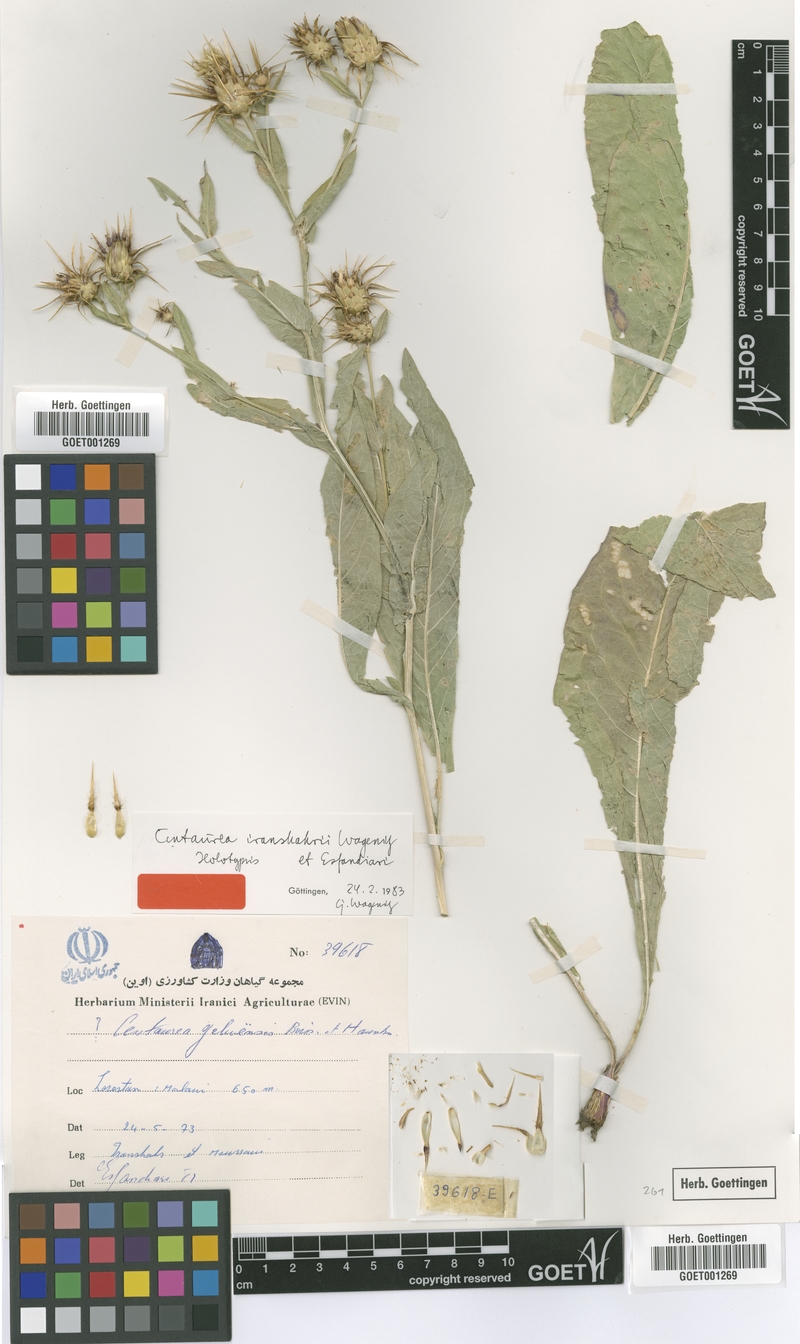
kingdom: Plantae
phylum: Tracheophyta
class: Magnoliopsida
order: Asterales
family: Asteraceae
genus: Centaurea
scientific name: Centaurea iranshahrii
